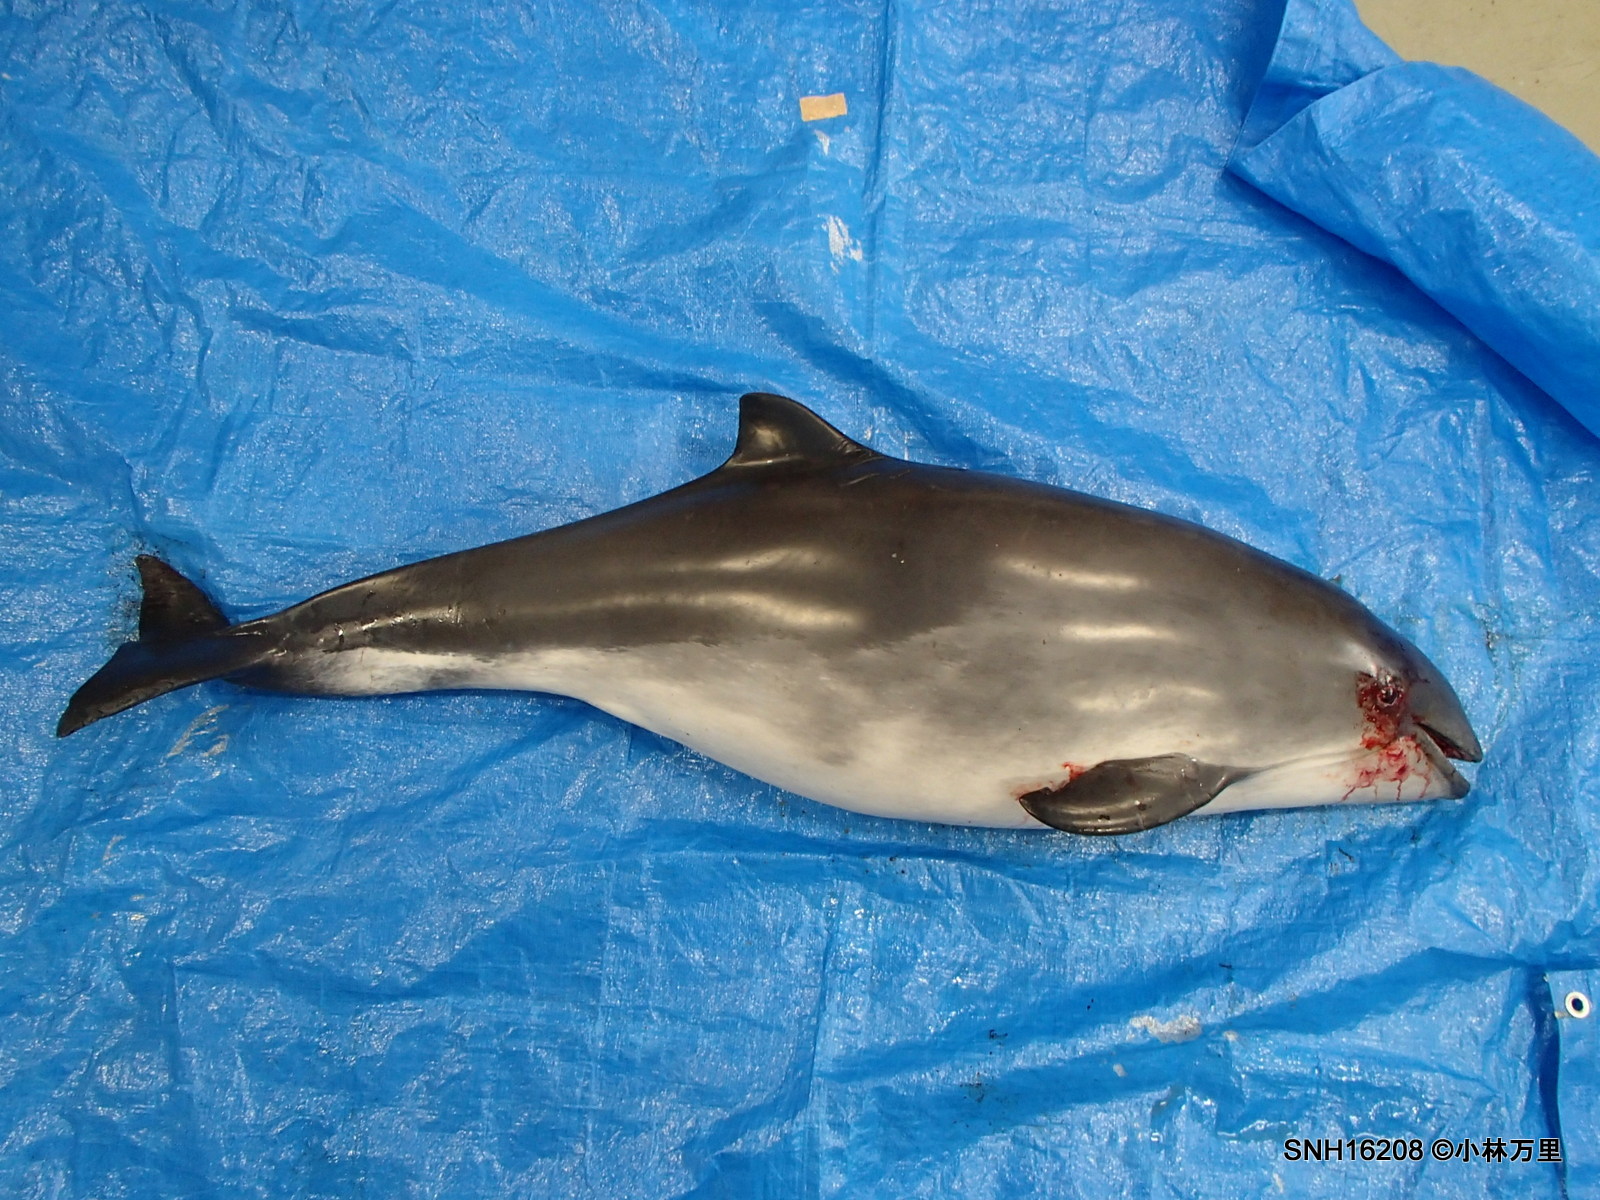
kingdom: Animalia
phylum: Chordata
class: Mammalia
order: Cetacea
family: Phocoenidae
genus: Phocoena
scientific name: Phocoena phocoena
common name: Harbour porpoise
